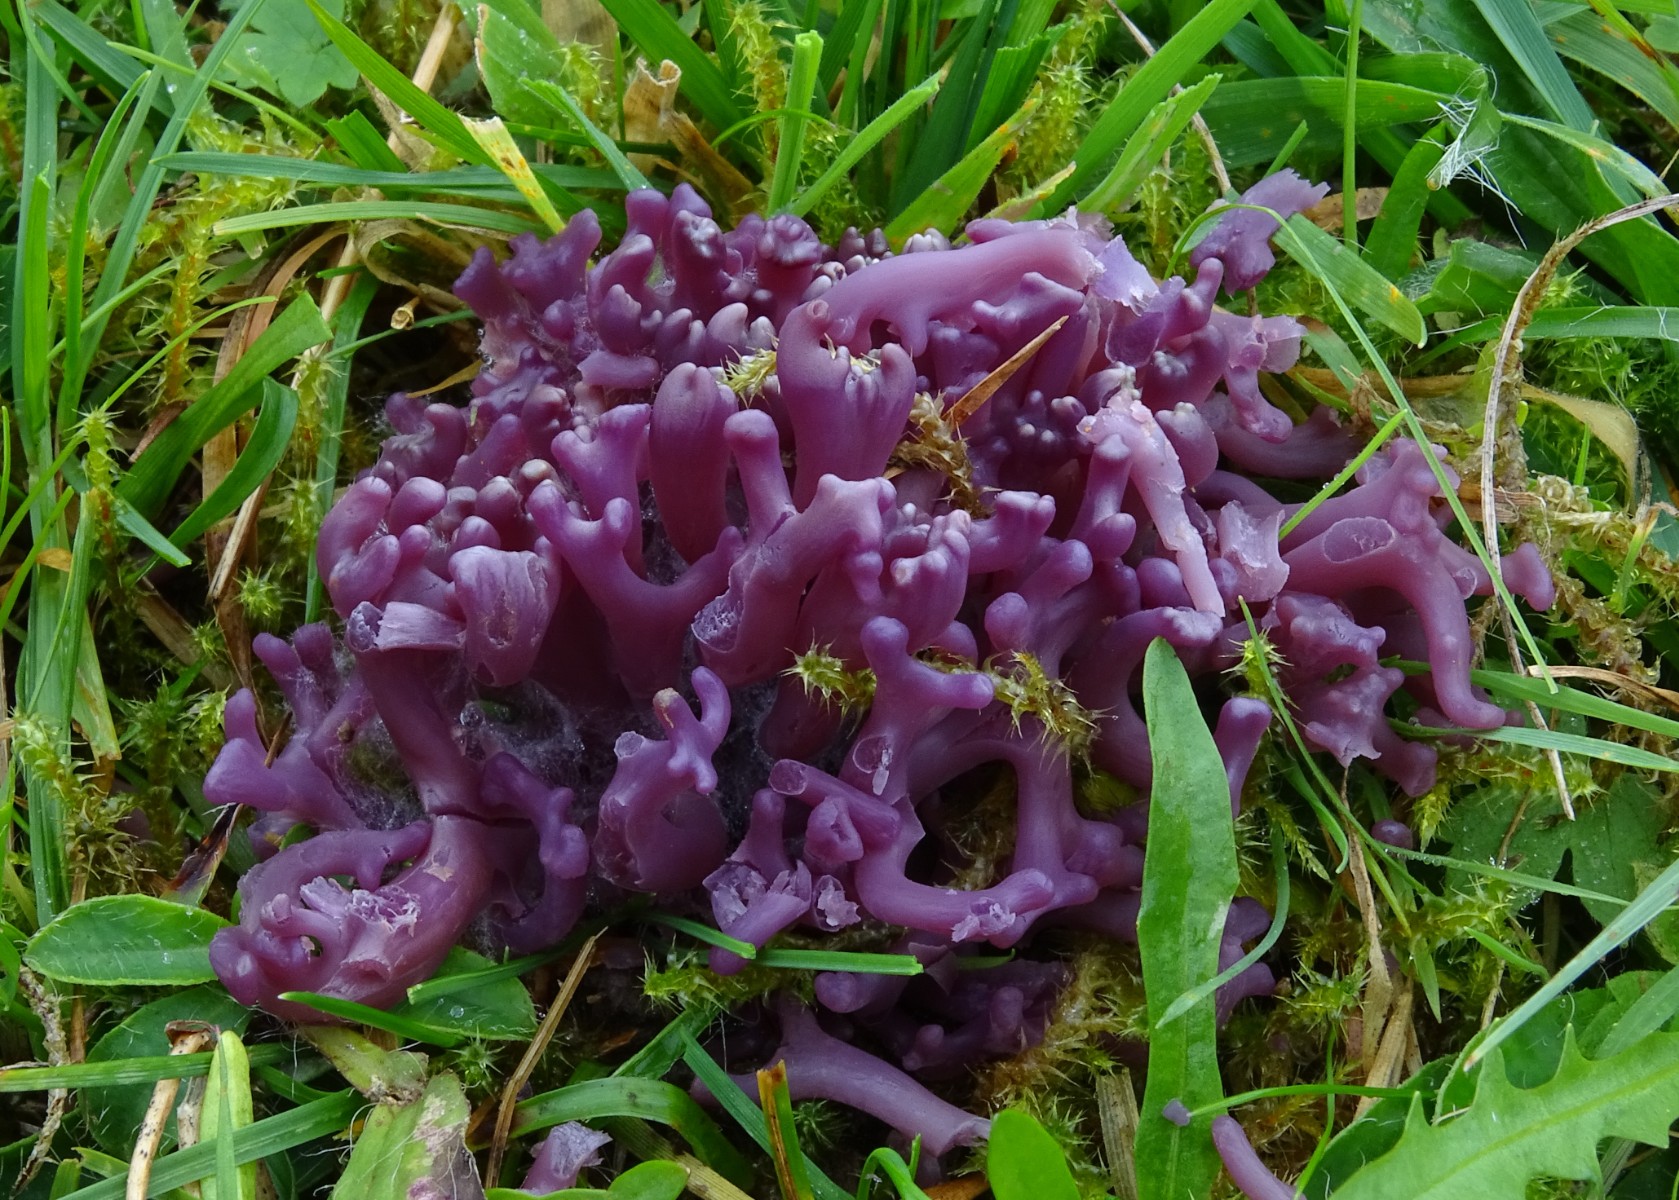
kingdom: Fungi
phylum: Basidiomycota
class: Agaricomycetes
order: Agaricales
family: Clavariaceae
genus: Clavaria
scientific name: Clavaria zollingeri
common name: purpur-køllesvamp
